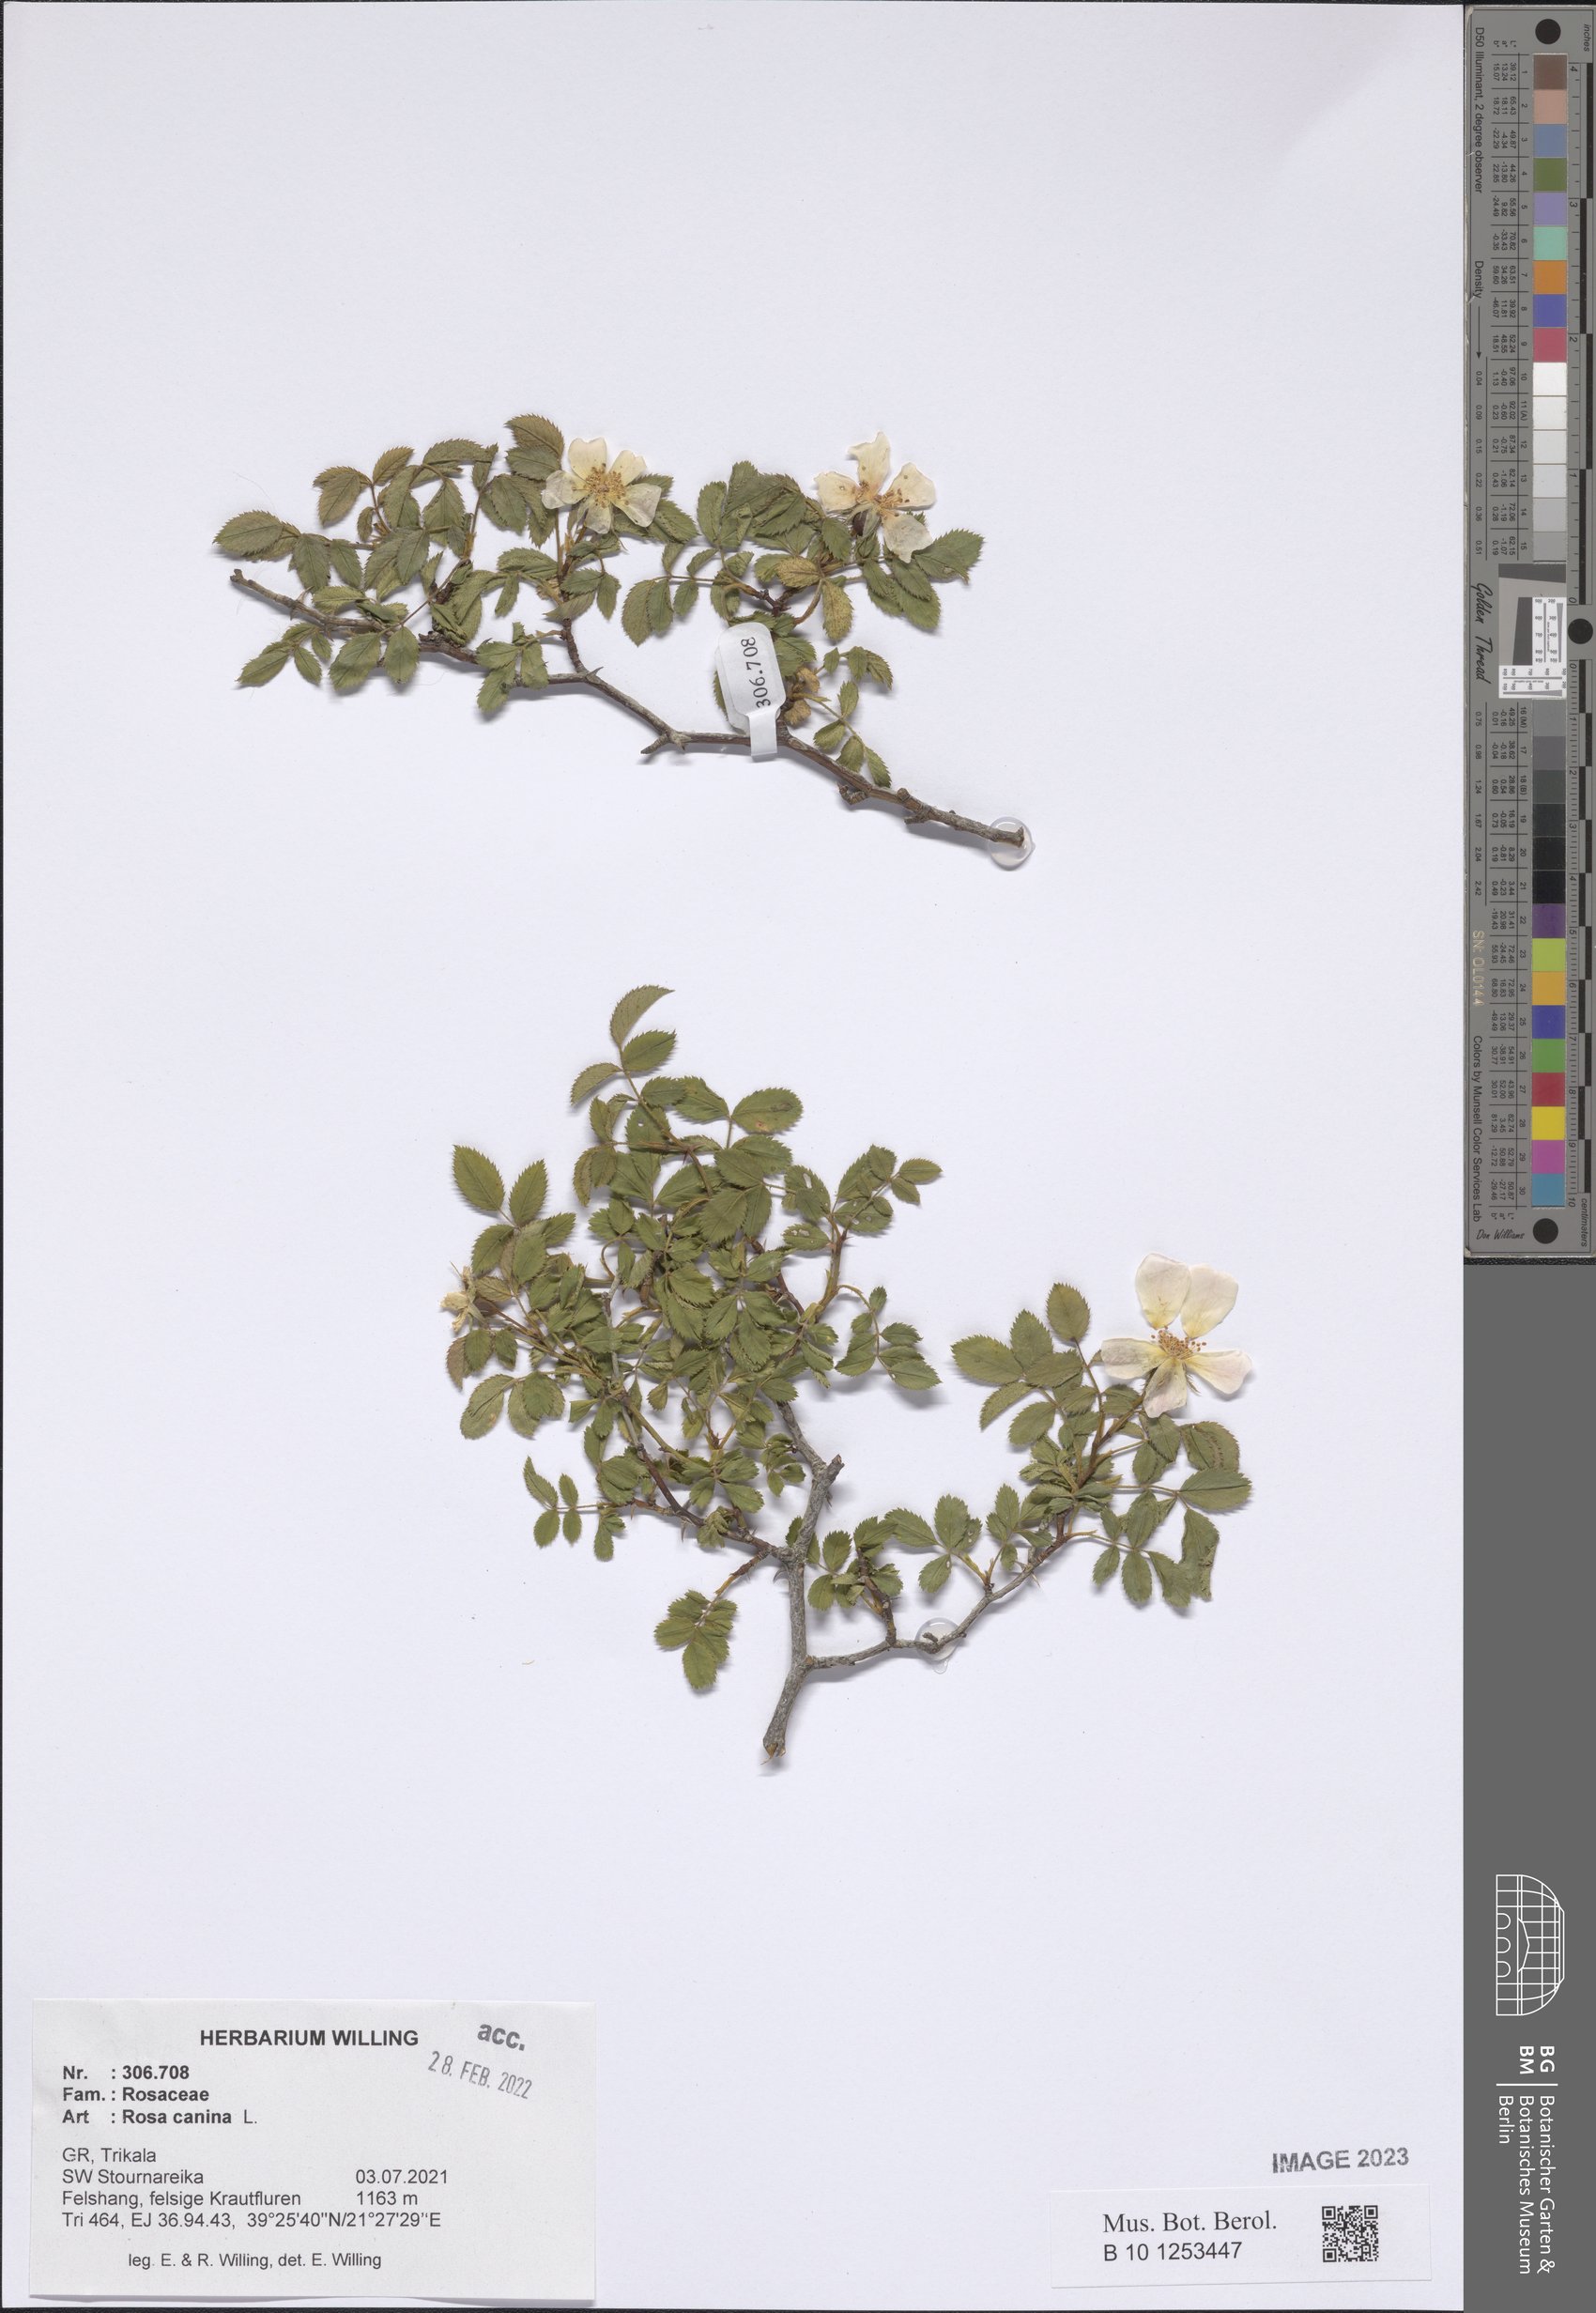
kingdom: Plantae
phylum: Tracheophyta
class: Magnoliopsida
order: Rosales
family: Rosaceae
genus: Rosa
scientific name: Rosa canina
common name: Dog rose
